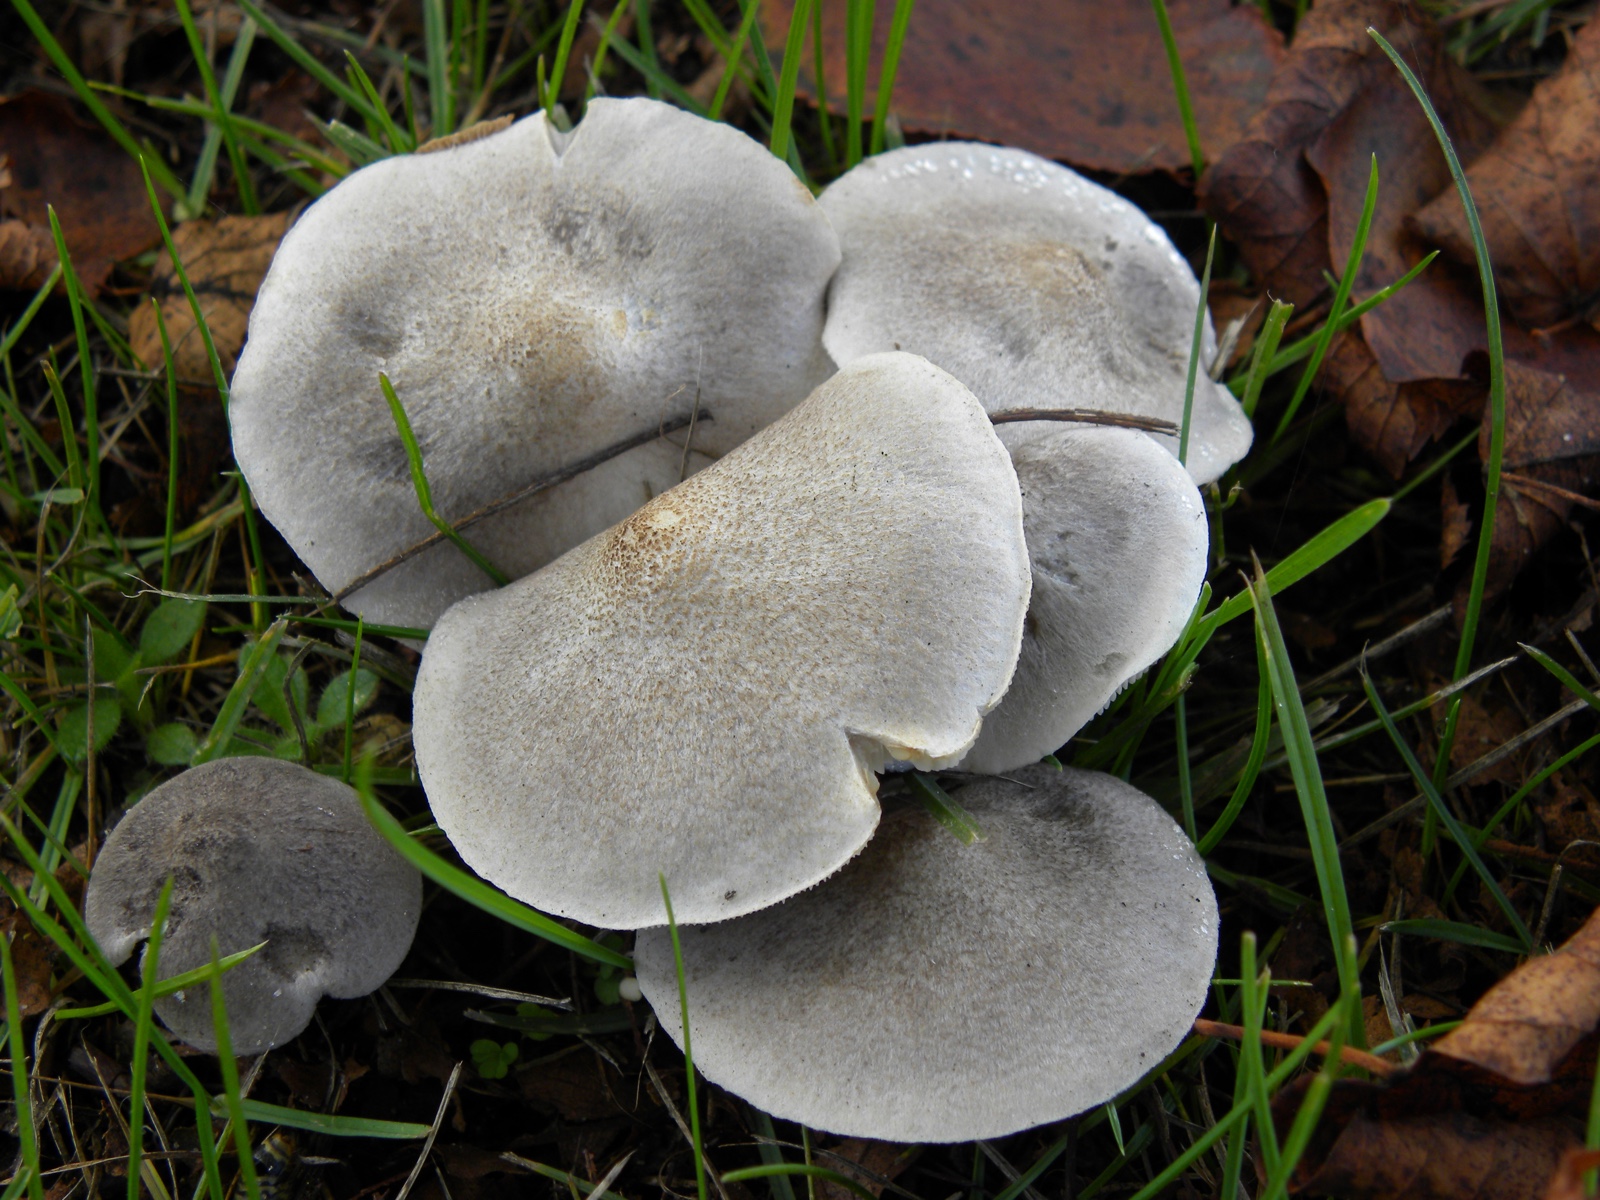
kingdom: Fungi
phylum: Basidiomycota
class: Agaricomycetes
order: Agaricales
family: Tricholomataceae
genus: Tricholoma
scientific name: Tricholoma argyraceum
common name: spids ridderhat
